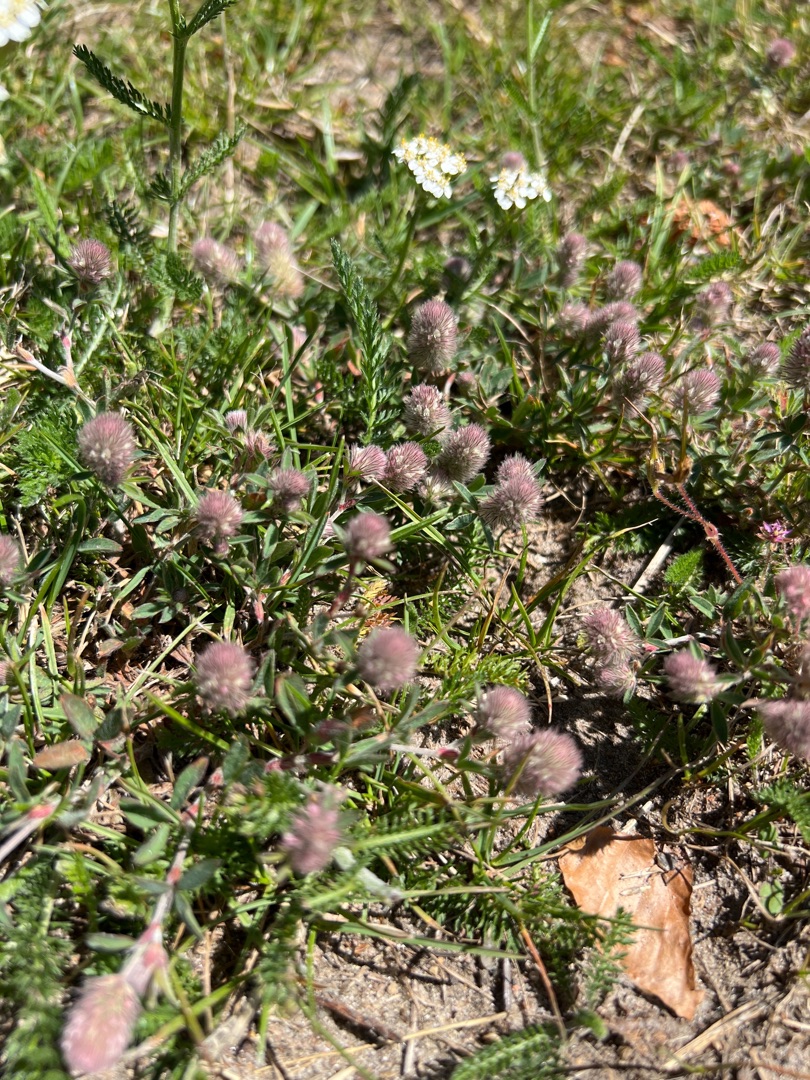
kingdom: Plantae
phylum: Tracheophyta
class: Magnoliopsida
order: Fabales
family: Fabaceae
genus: Trifolium
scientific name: Trifolium arvense
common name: Hare-kløver
